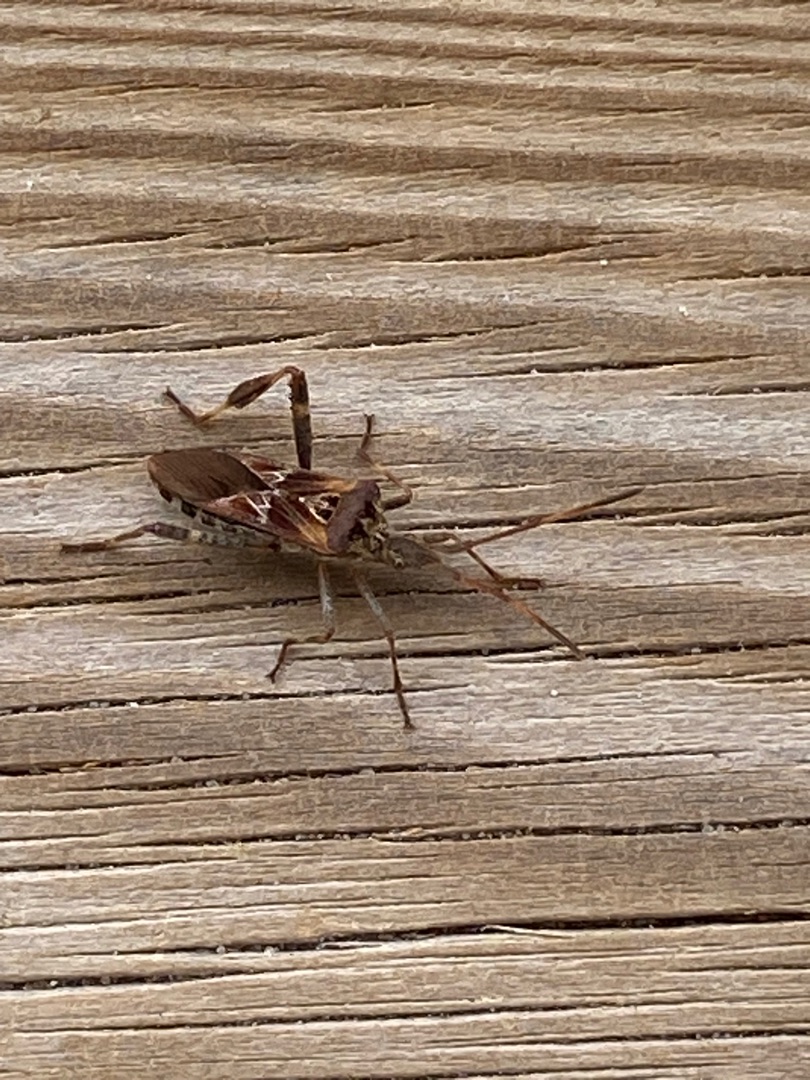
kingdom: Animalia
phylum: Arthropoda
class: Insecta
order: Hemiptera
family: Coreidae
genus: Leptoglossus
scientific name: Leptoglossus occidentalis
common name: Amerikansk fyrretæge
